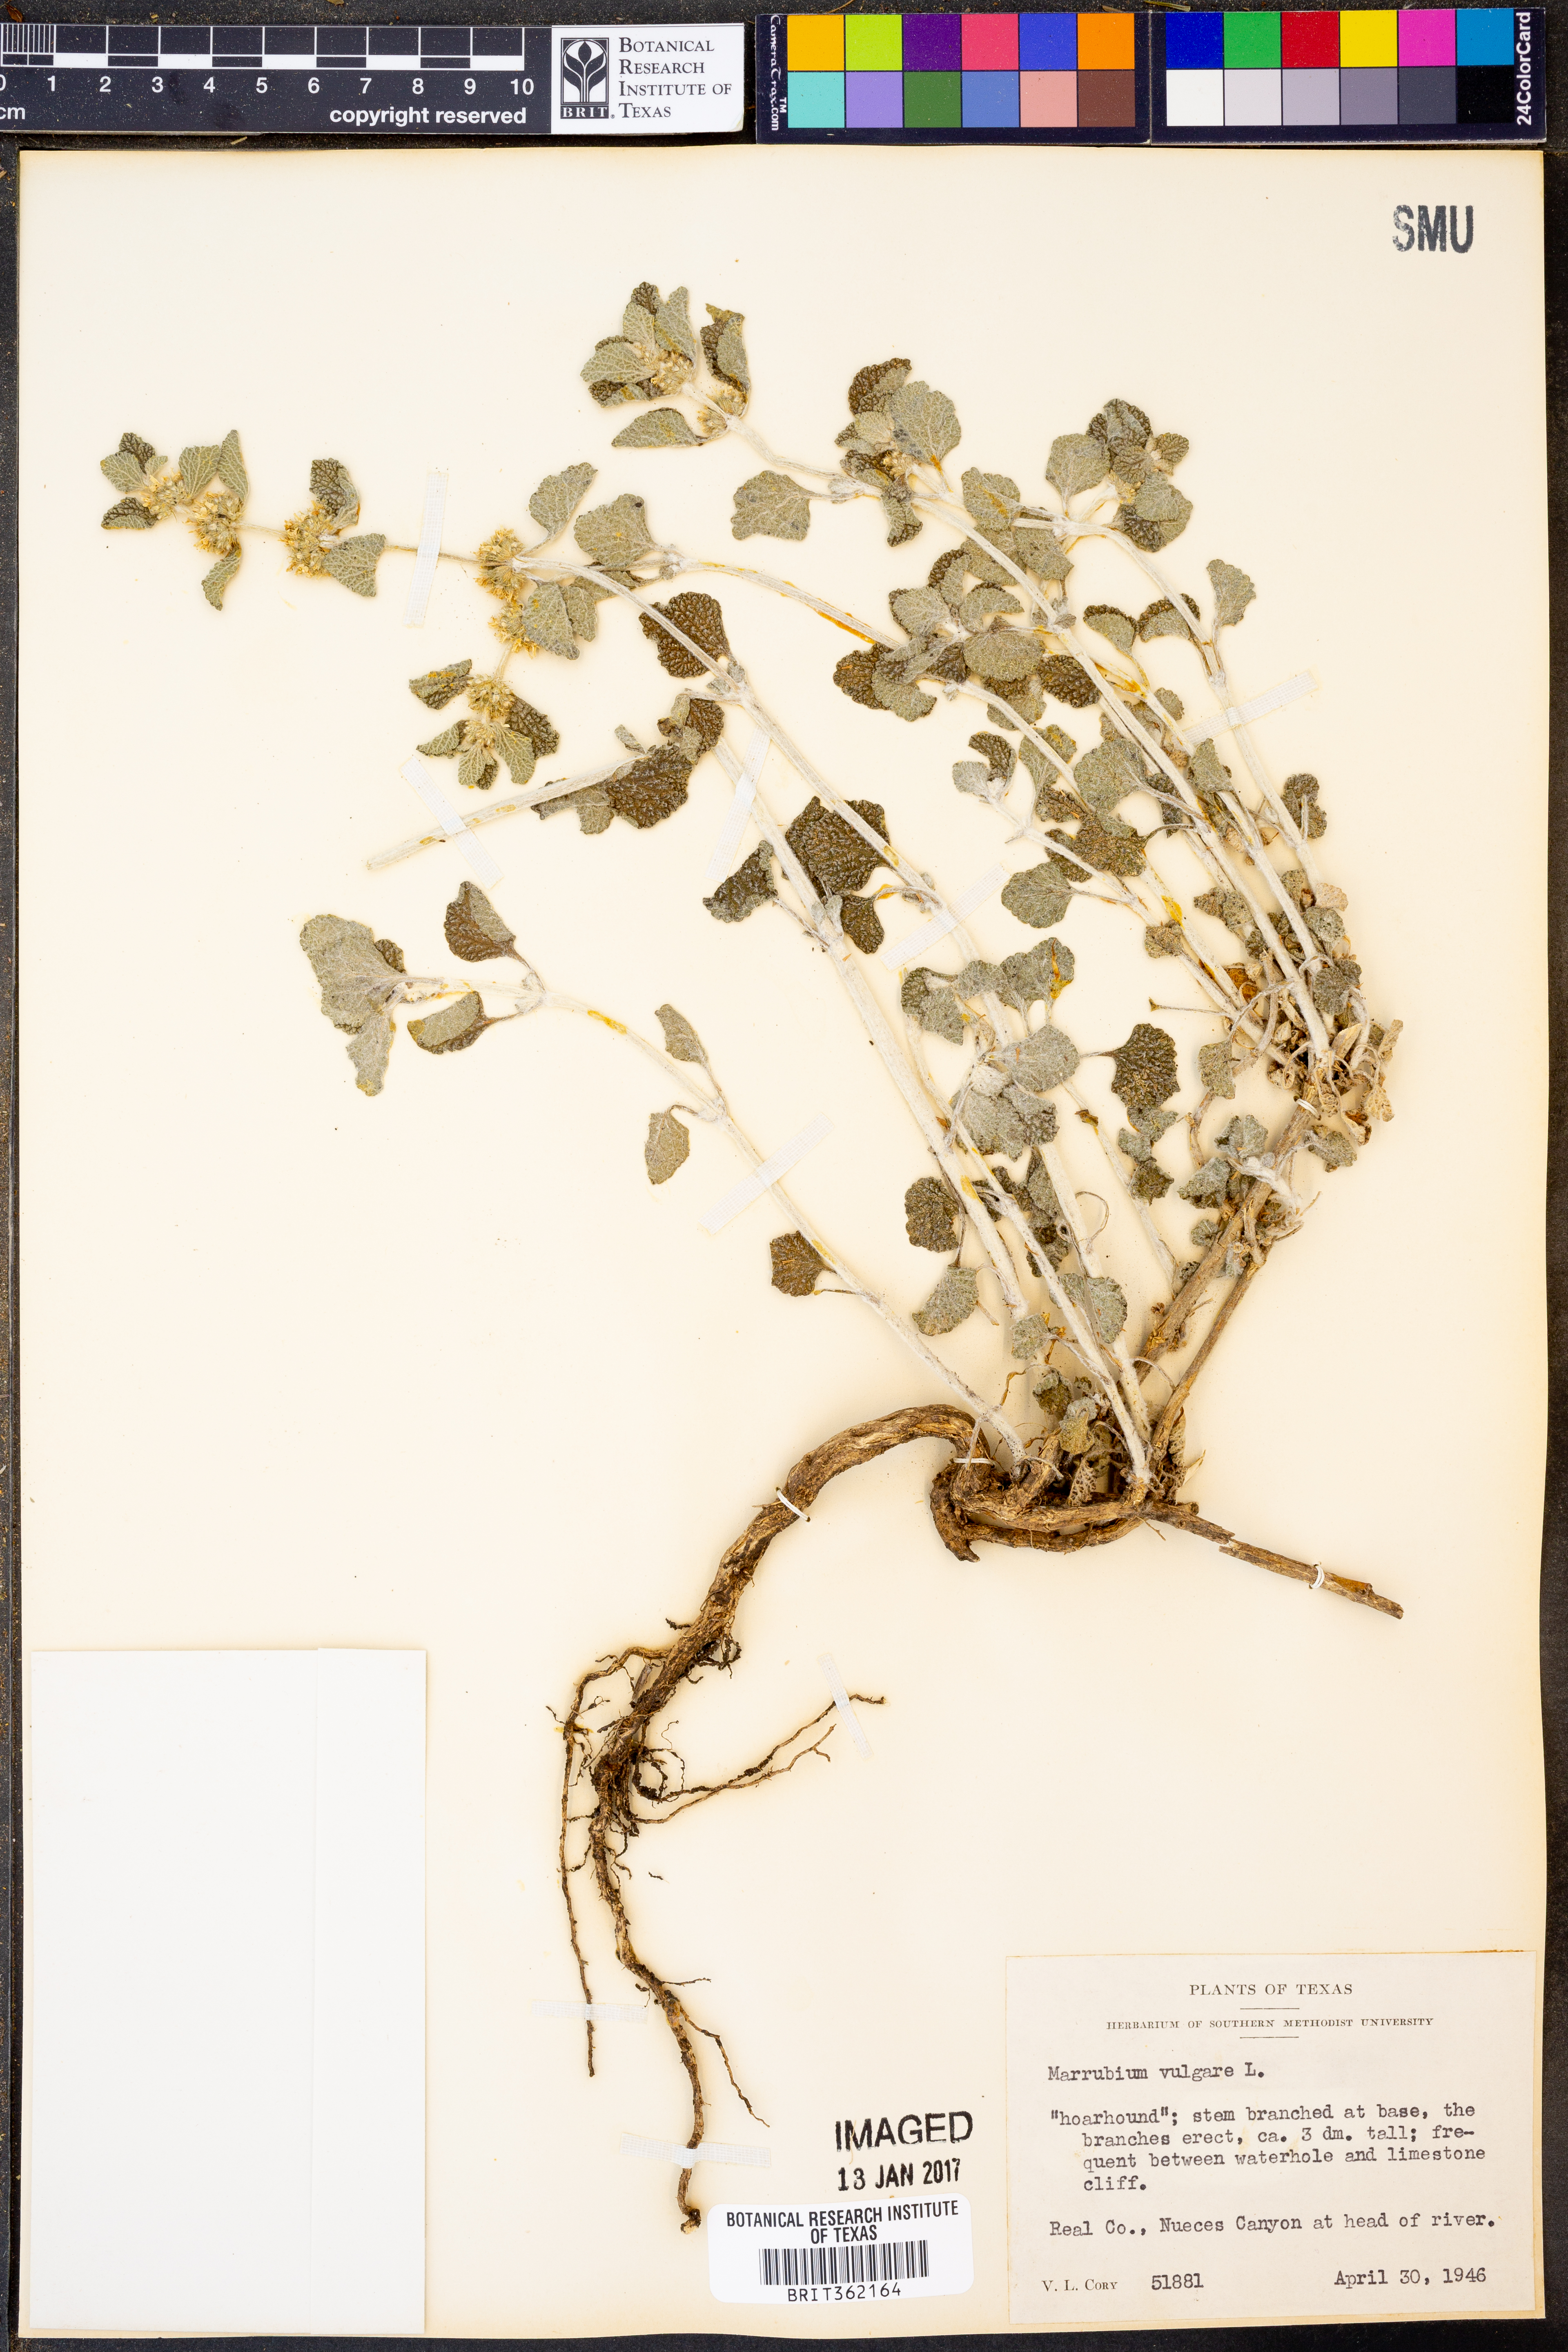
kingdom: Plantae
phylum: Tracheophyta
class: Magnoliopsida
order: Lamiales
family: Lamiaceae
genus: Marrubium
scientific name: Marrubium vulgare
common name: Horehound
